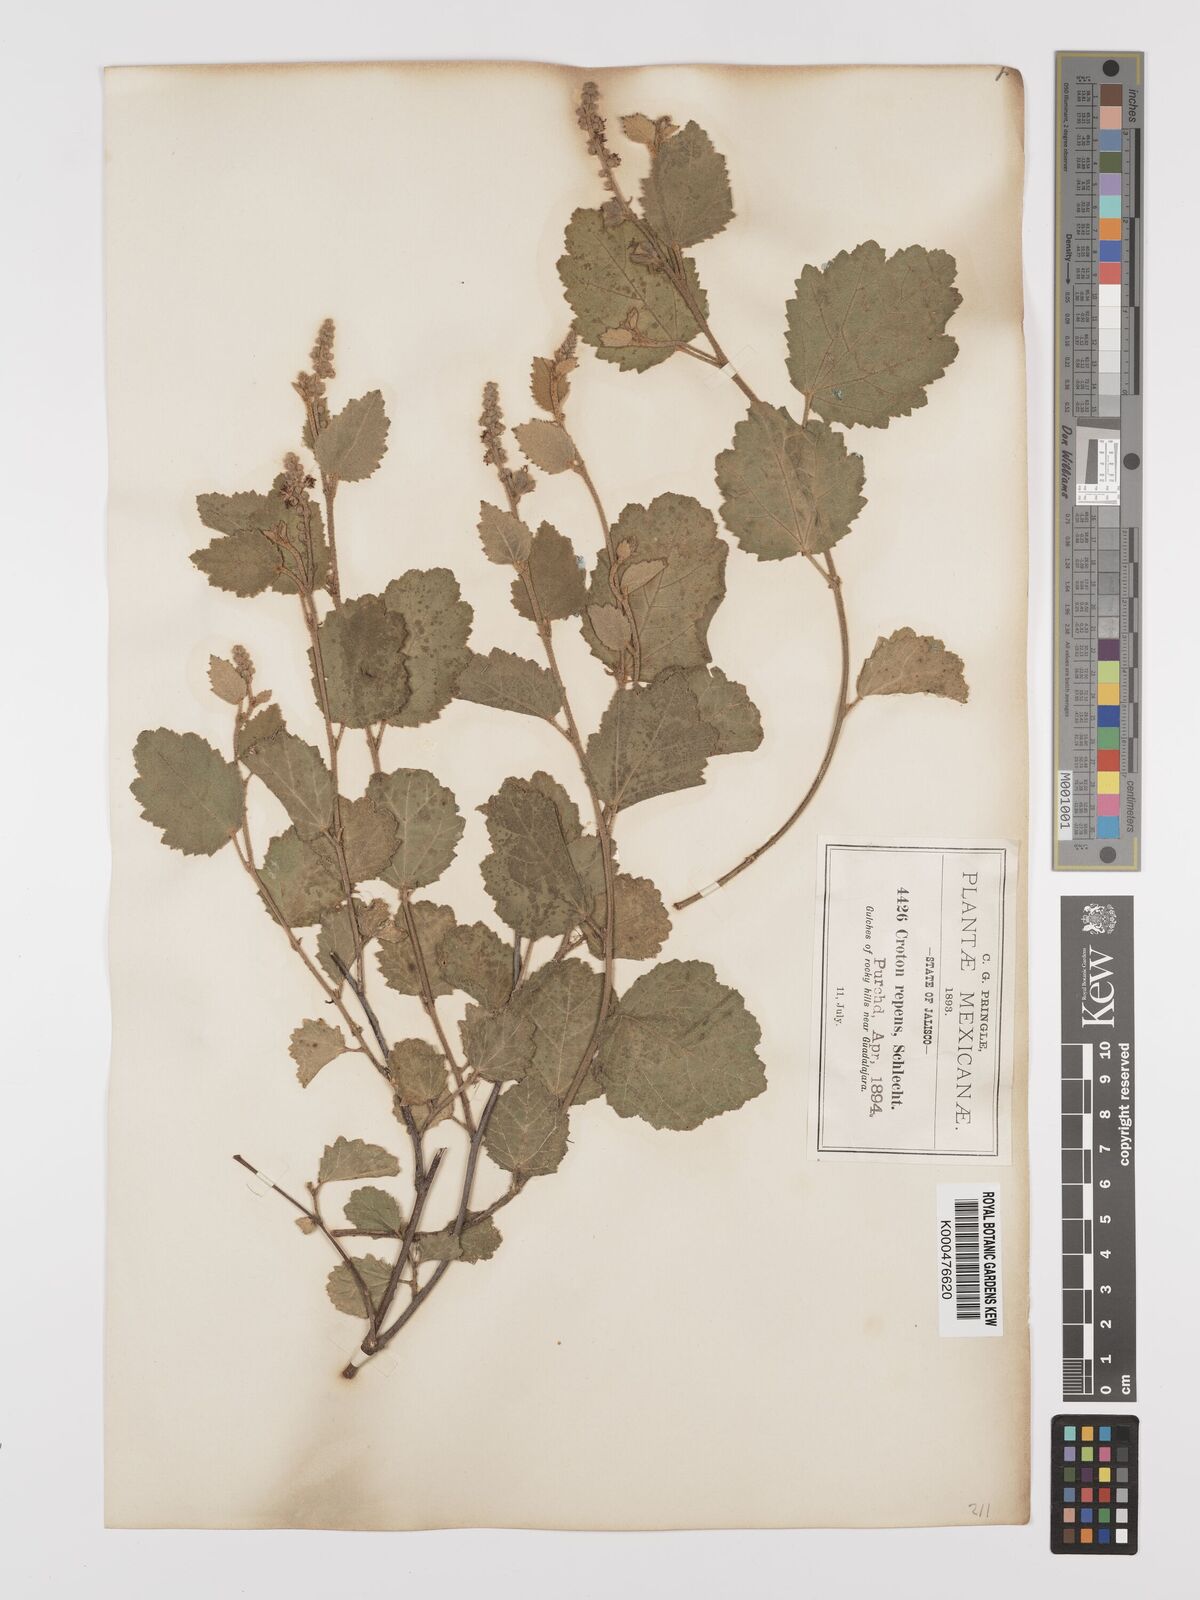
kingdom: Plantae
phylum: Tracheophyta
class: Magnoliopsida
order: Malpighiales
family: Euphorbiaceae
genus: Croton
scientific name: Croton repens
